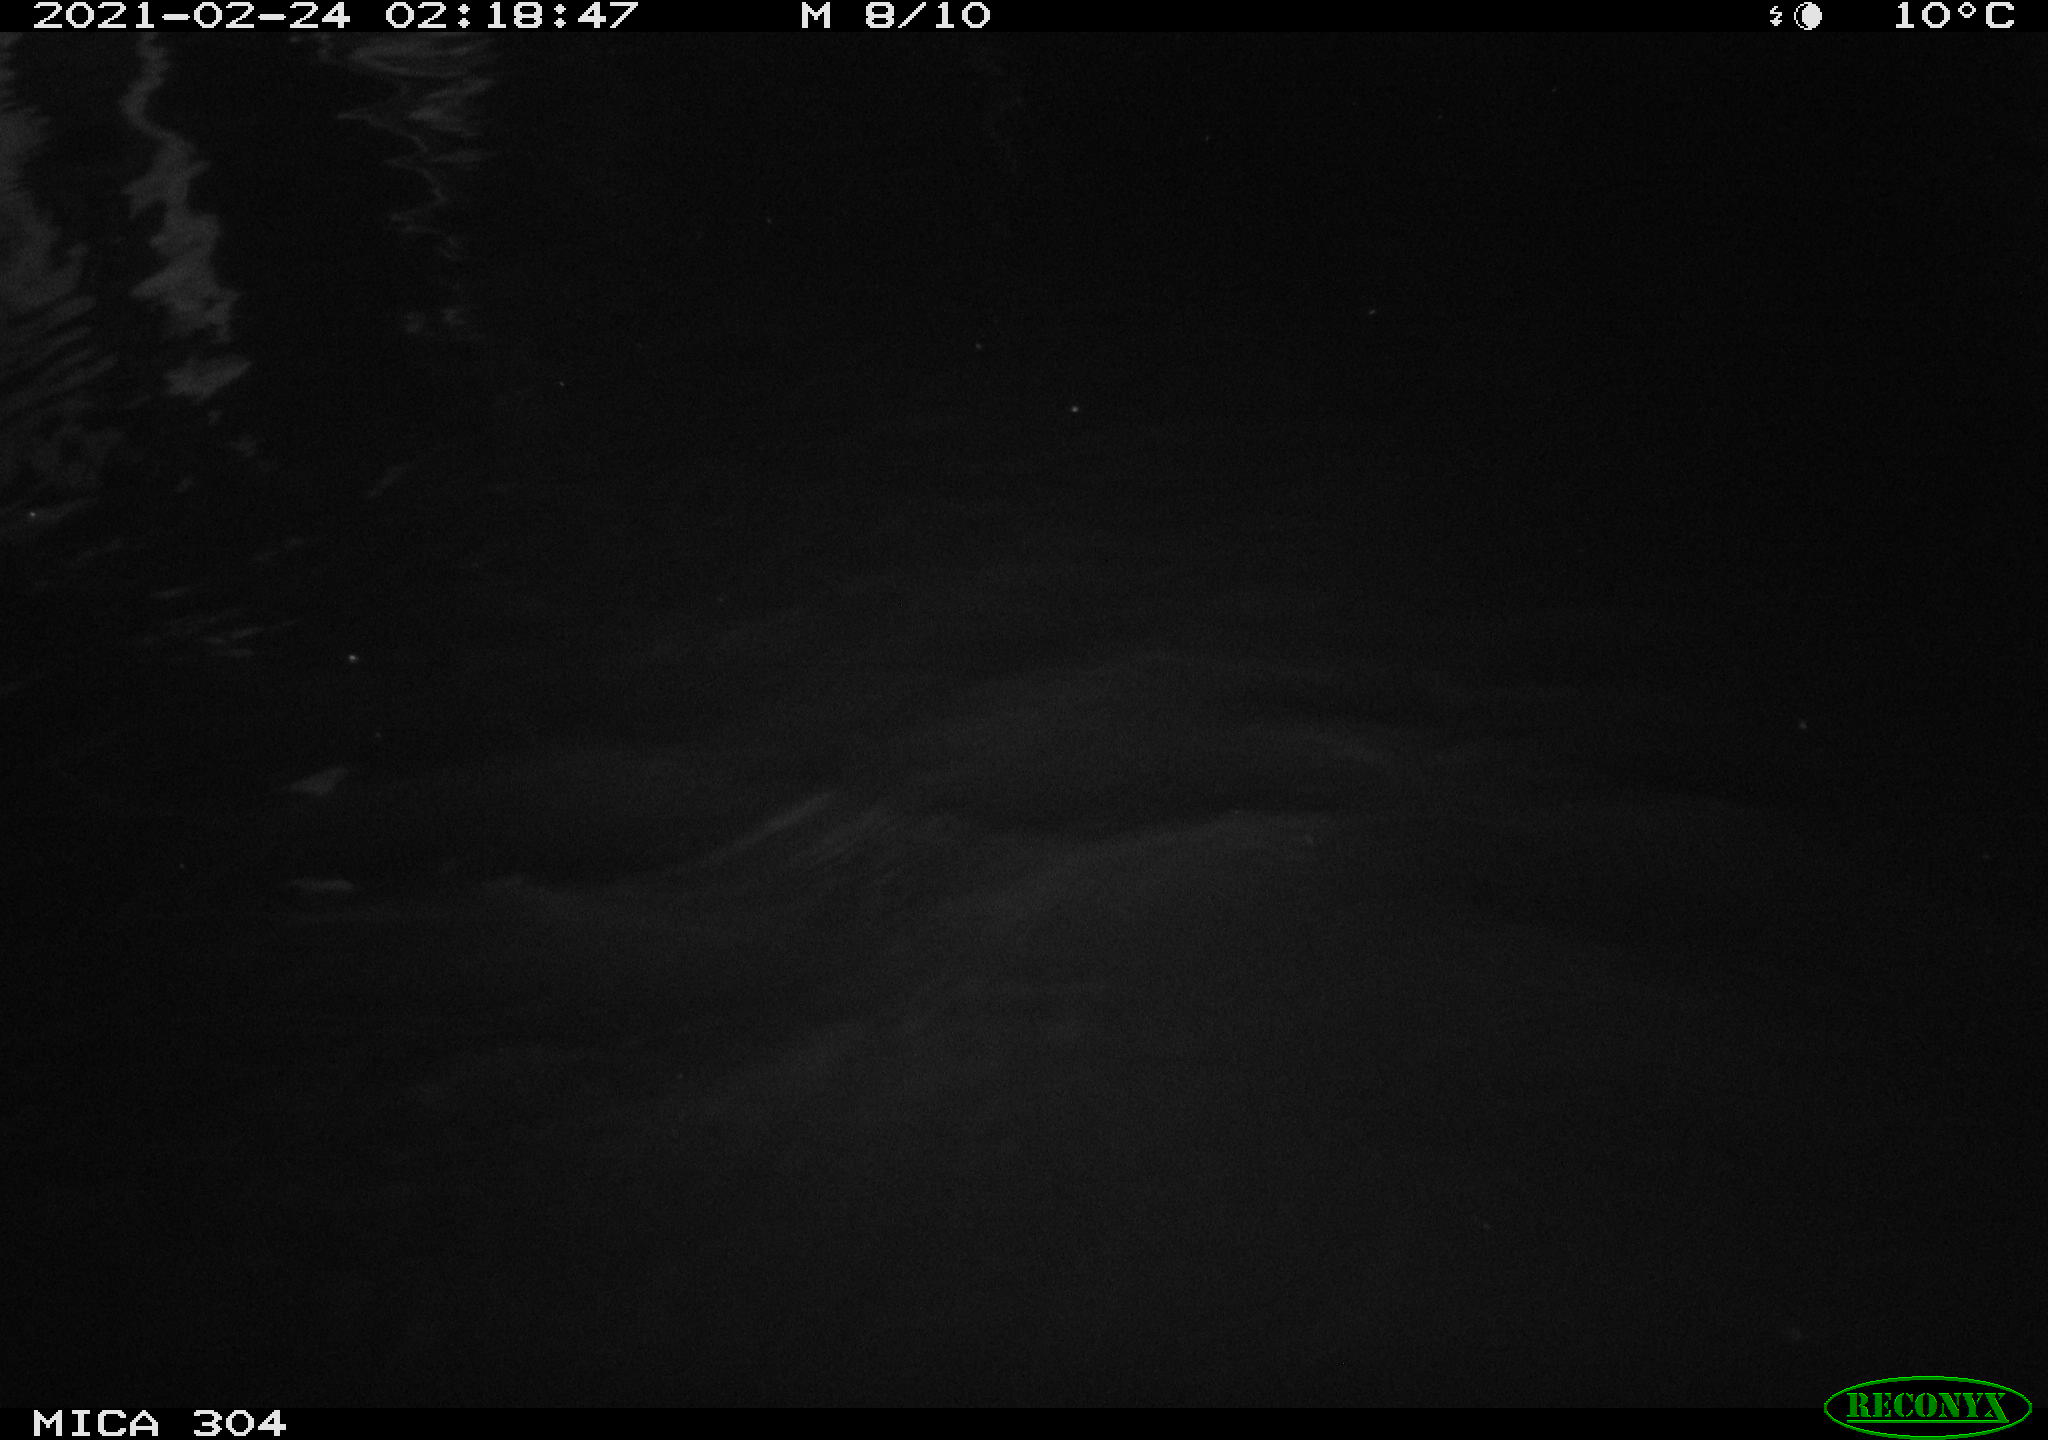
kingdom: Animalia
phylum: Chordata
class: Mammalia
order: Rodentia
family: Cricetidae
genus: Ondatra
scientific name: Ondatra zibethicus
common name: Muskrat
